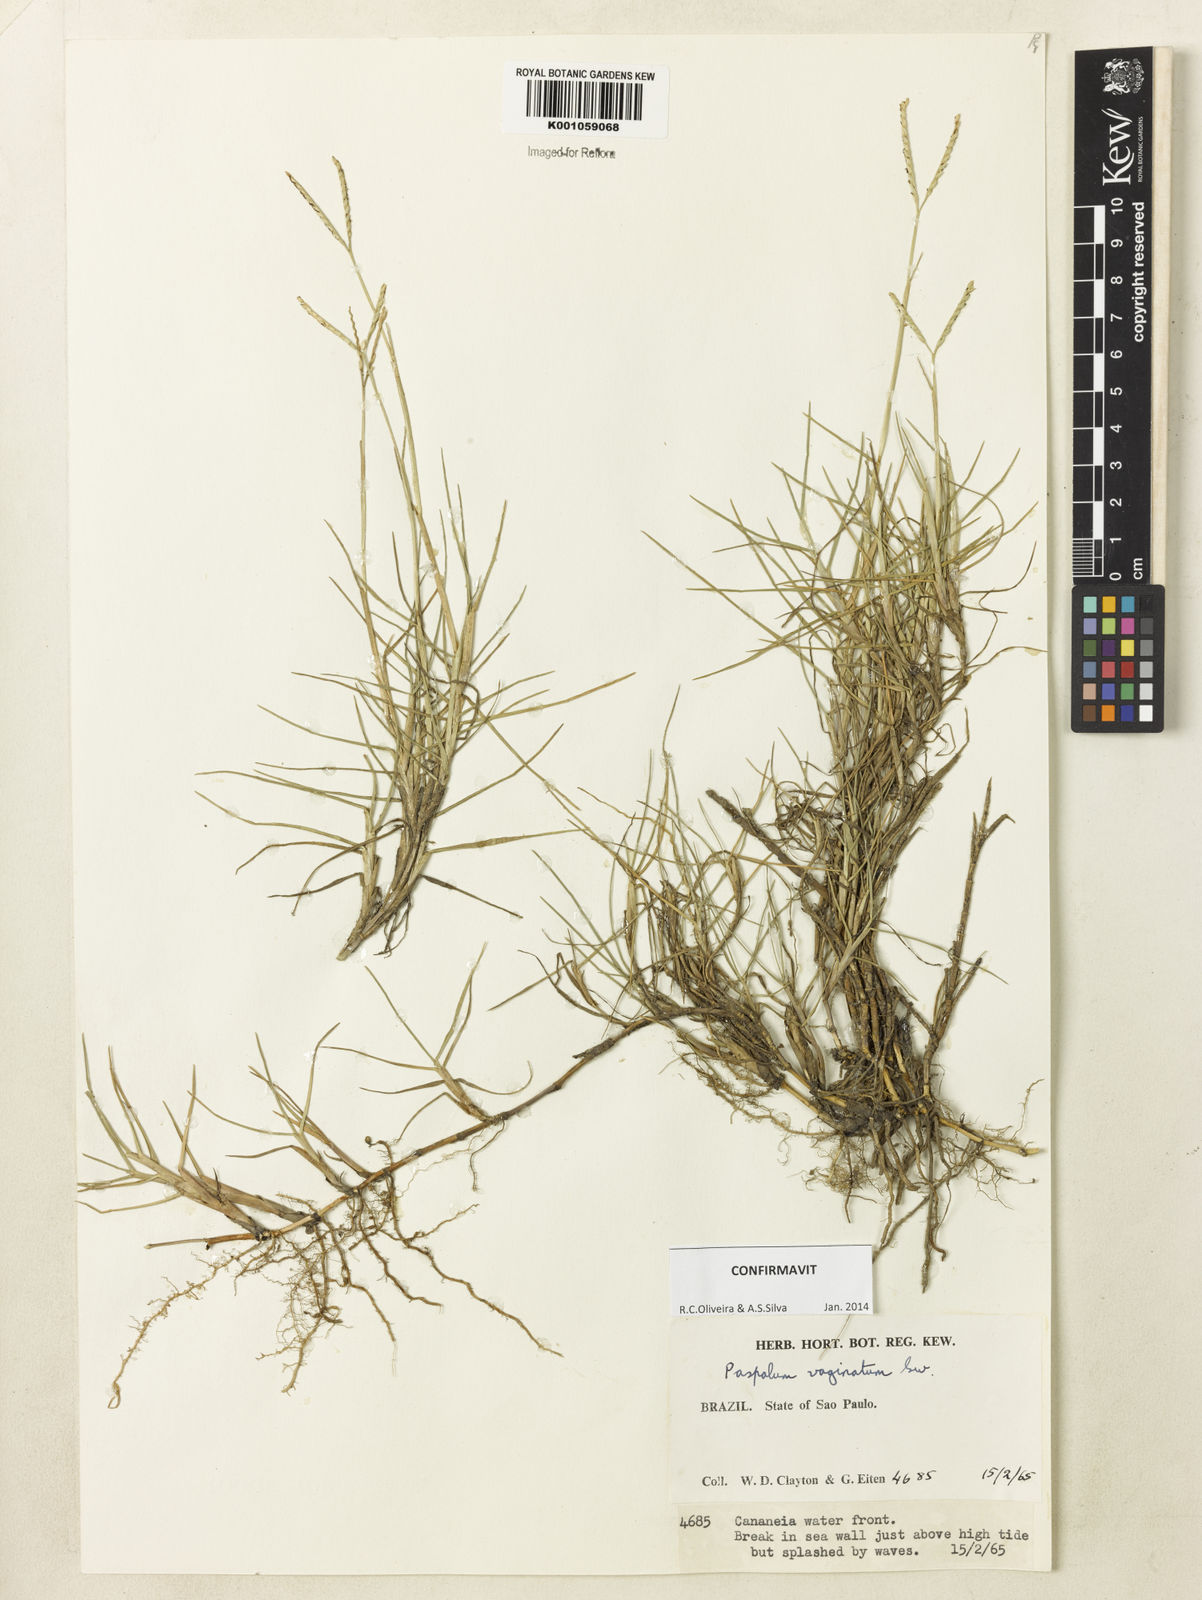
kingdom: Plantae
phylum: Tracheophyta
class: Liliopsida
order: Poales
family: Poaceae
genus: Paspalum
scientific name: Paspalum vaginatum
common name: Seashore paspalum
